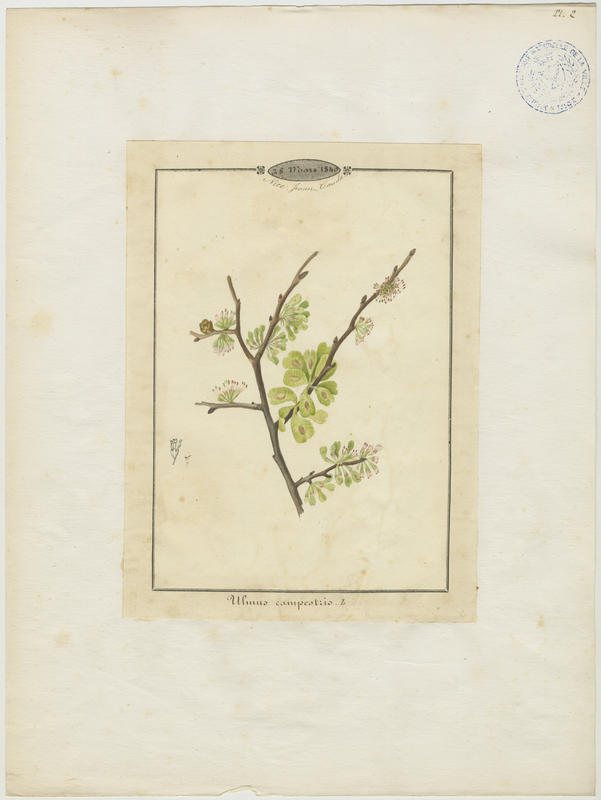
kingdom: Plantae
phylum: Tracheophyta
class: Magnoliopsida
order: Rosales
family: Ulmaceae
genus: Ulmus
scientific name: Ulmus minor
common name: Small-leaved elm
